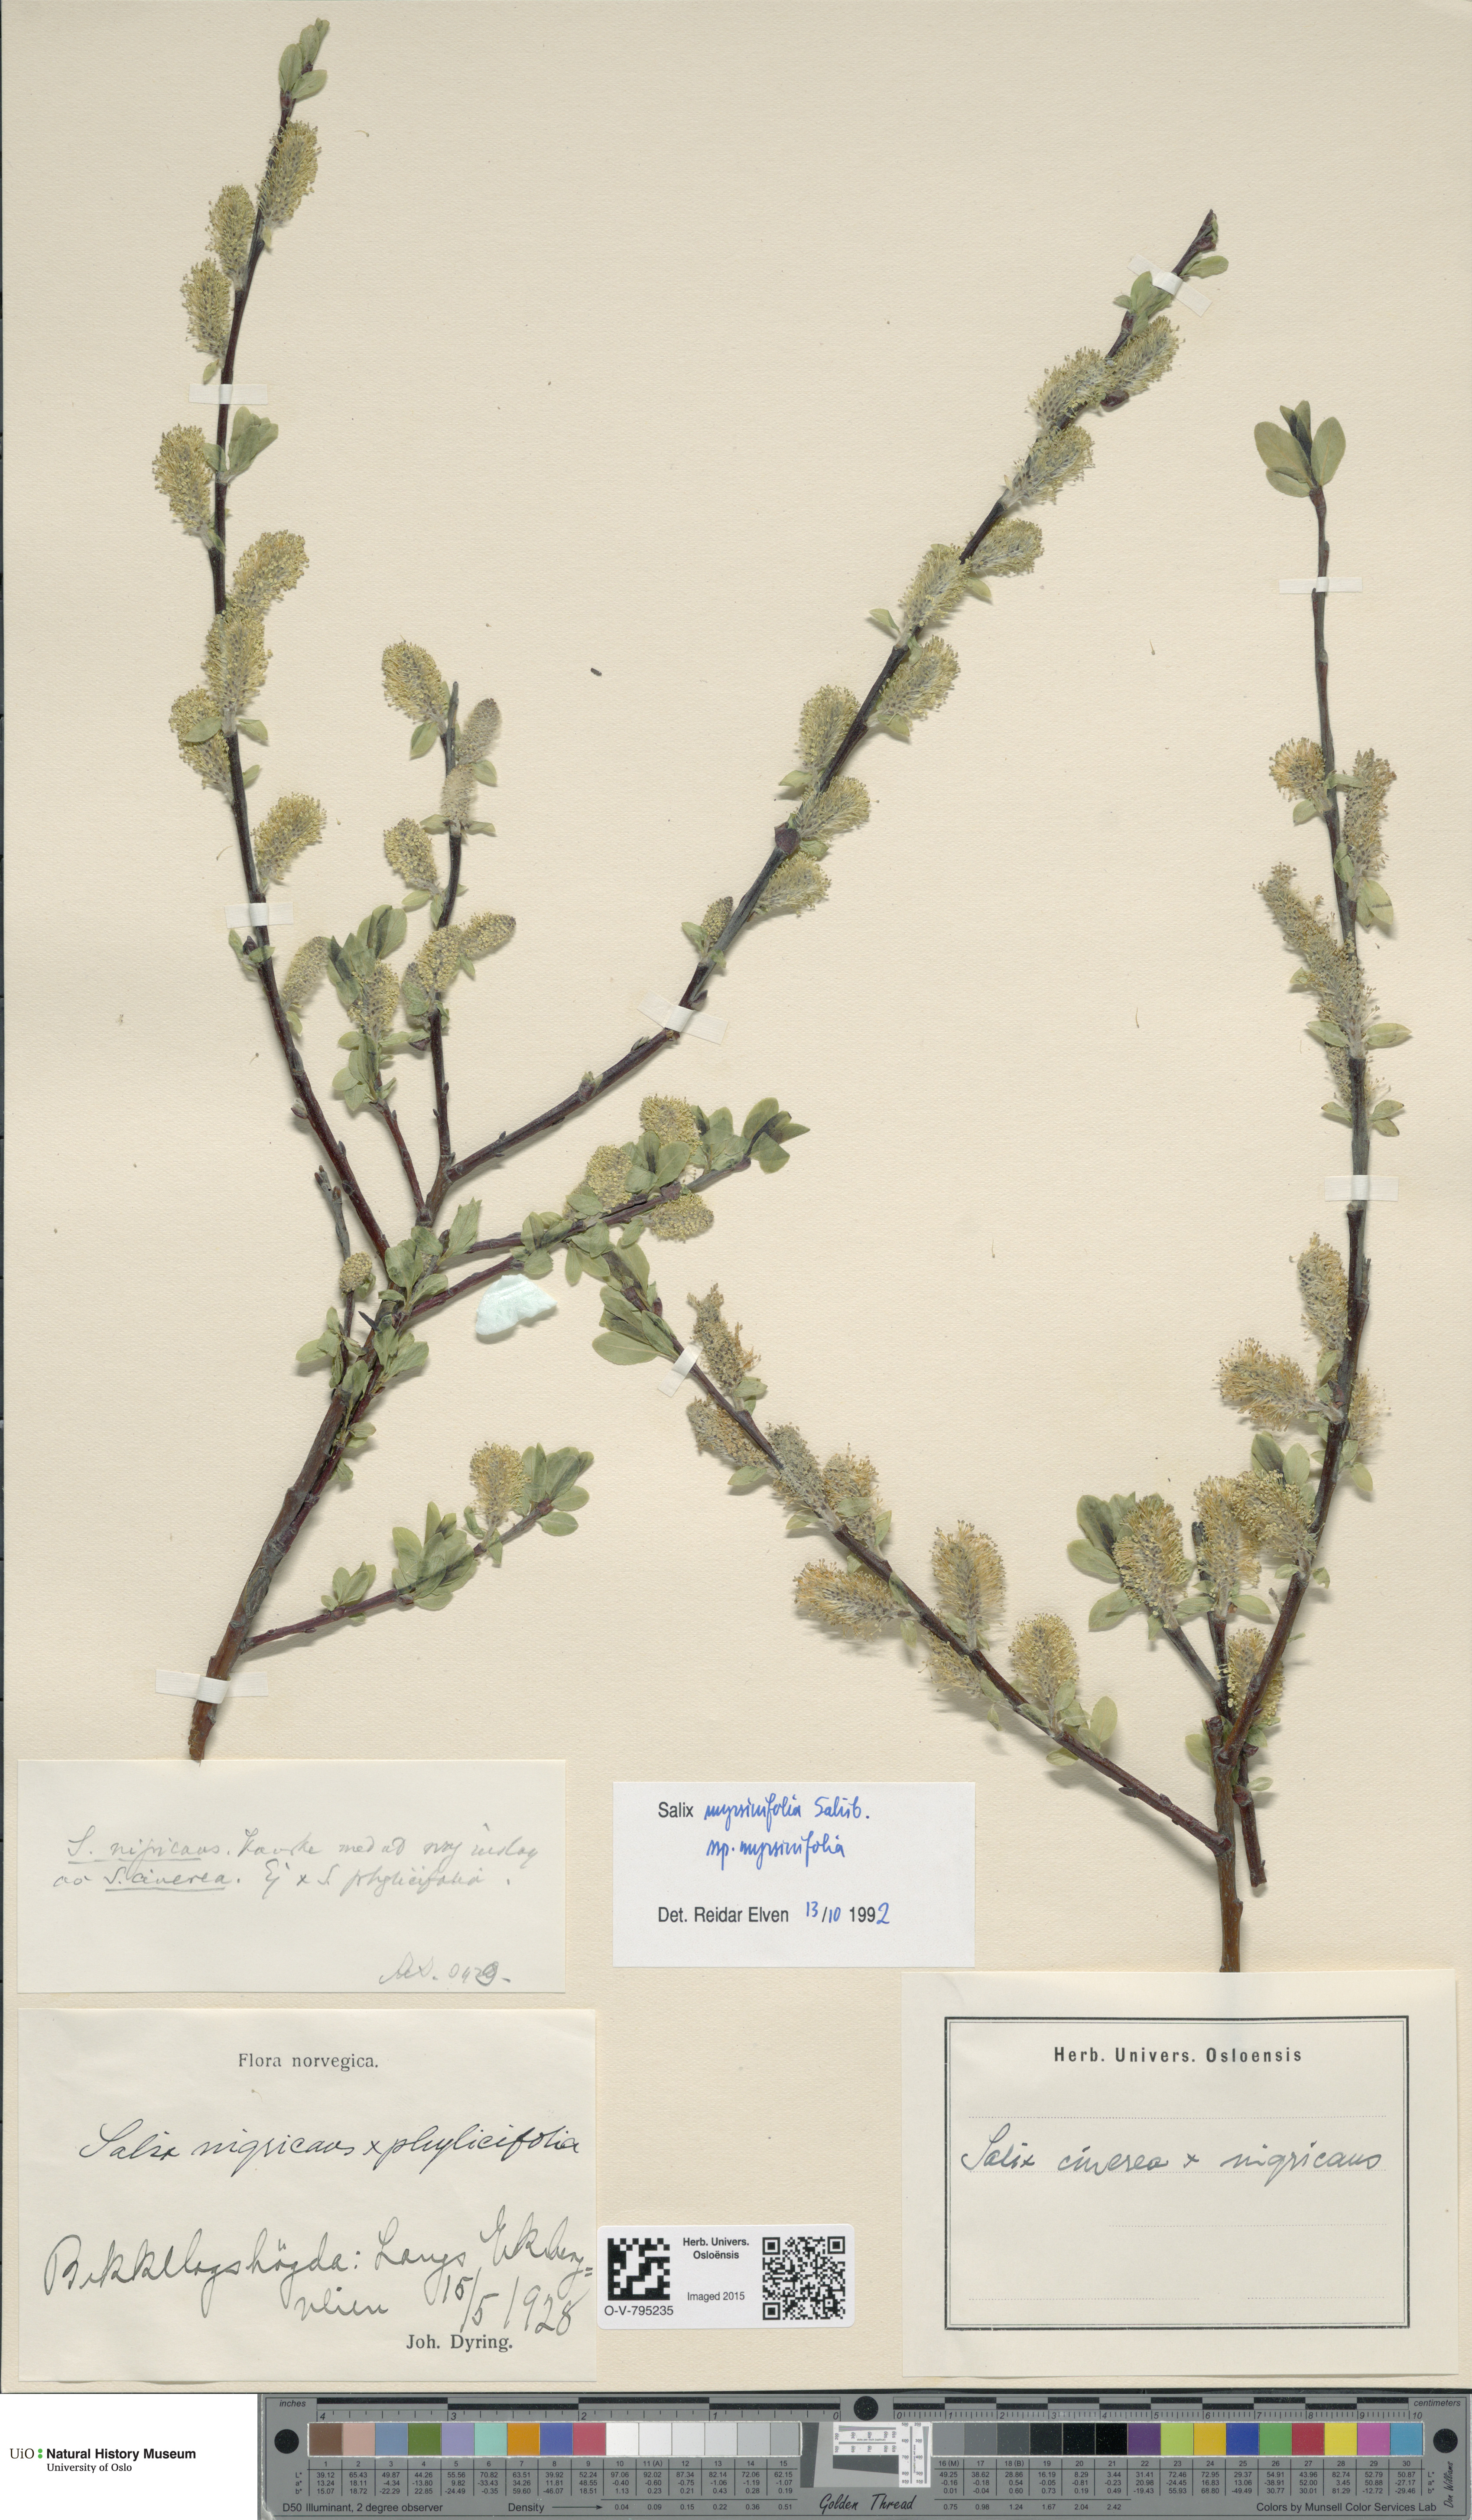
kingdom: Plantae
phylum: Tracheophyta
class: Magnoliopsida
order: Malpighiales
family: Salicaceae
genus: Salix
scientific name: Salix myrsinifolia
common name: Dark-leaved willow
